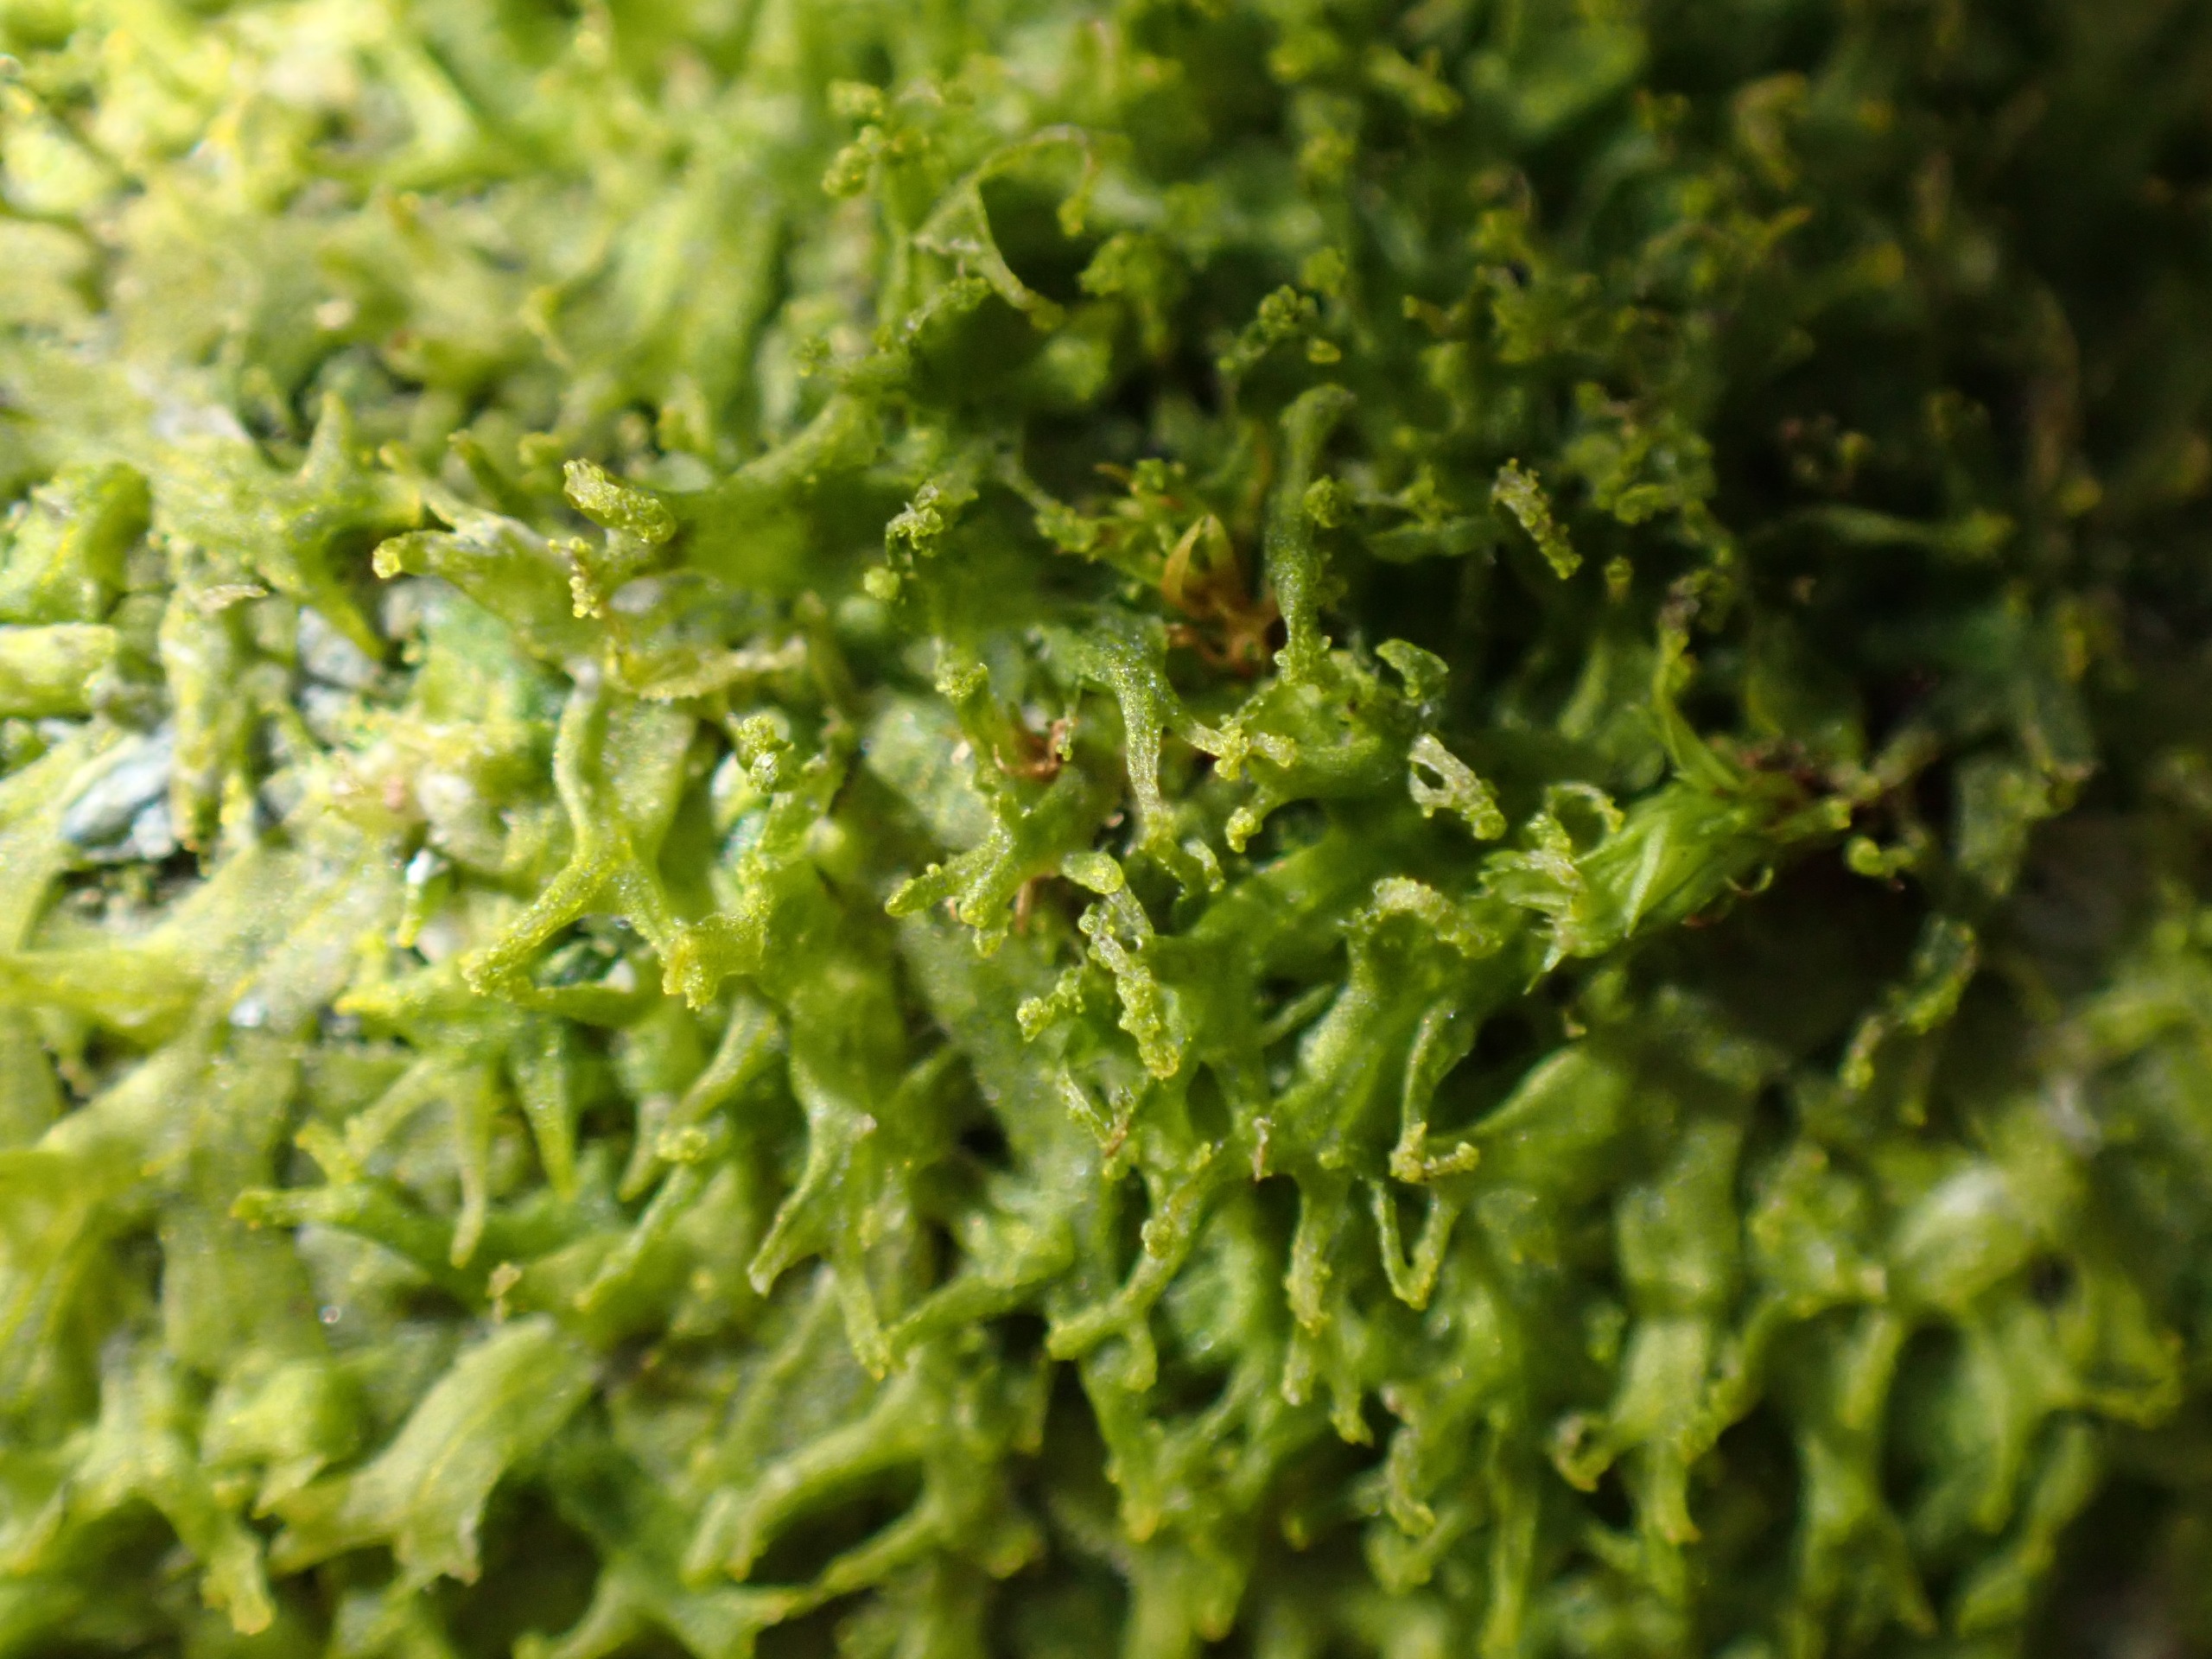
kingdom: Plantae
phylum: Marchantiophyta
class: Jungermanniopsida
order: Metzgeriales
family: Aneuraceae
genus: Riccardia
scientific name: Riccardia palmata
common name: Blågrøn gaffelløv
